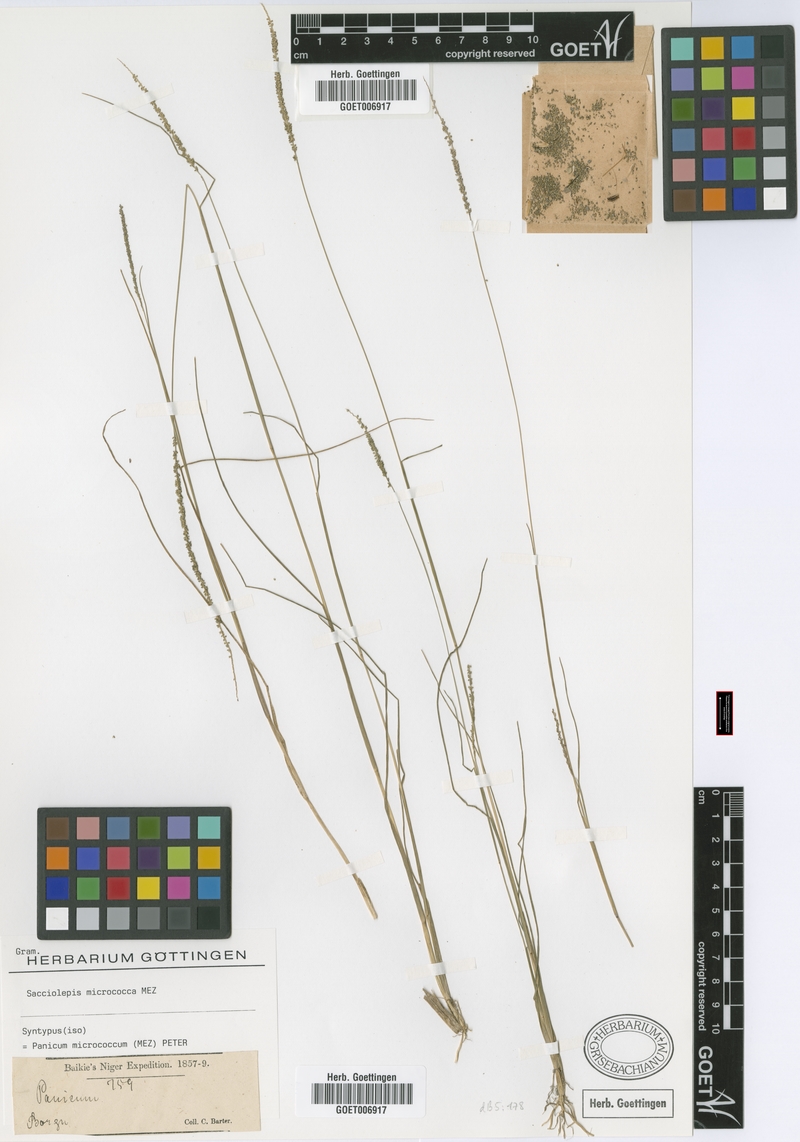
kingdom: Plantae
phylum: Tracheophyta
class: Liliopsida
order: Poales
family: Poaceae
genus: Sacciolepis
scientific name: Sacciolepis micrococca
